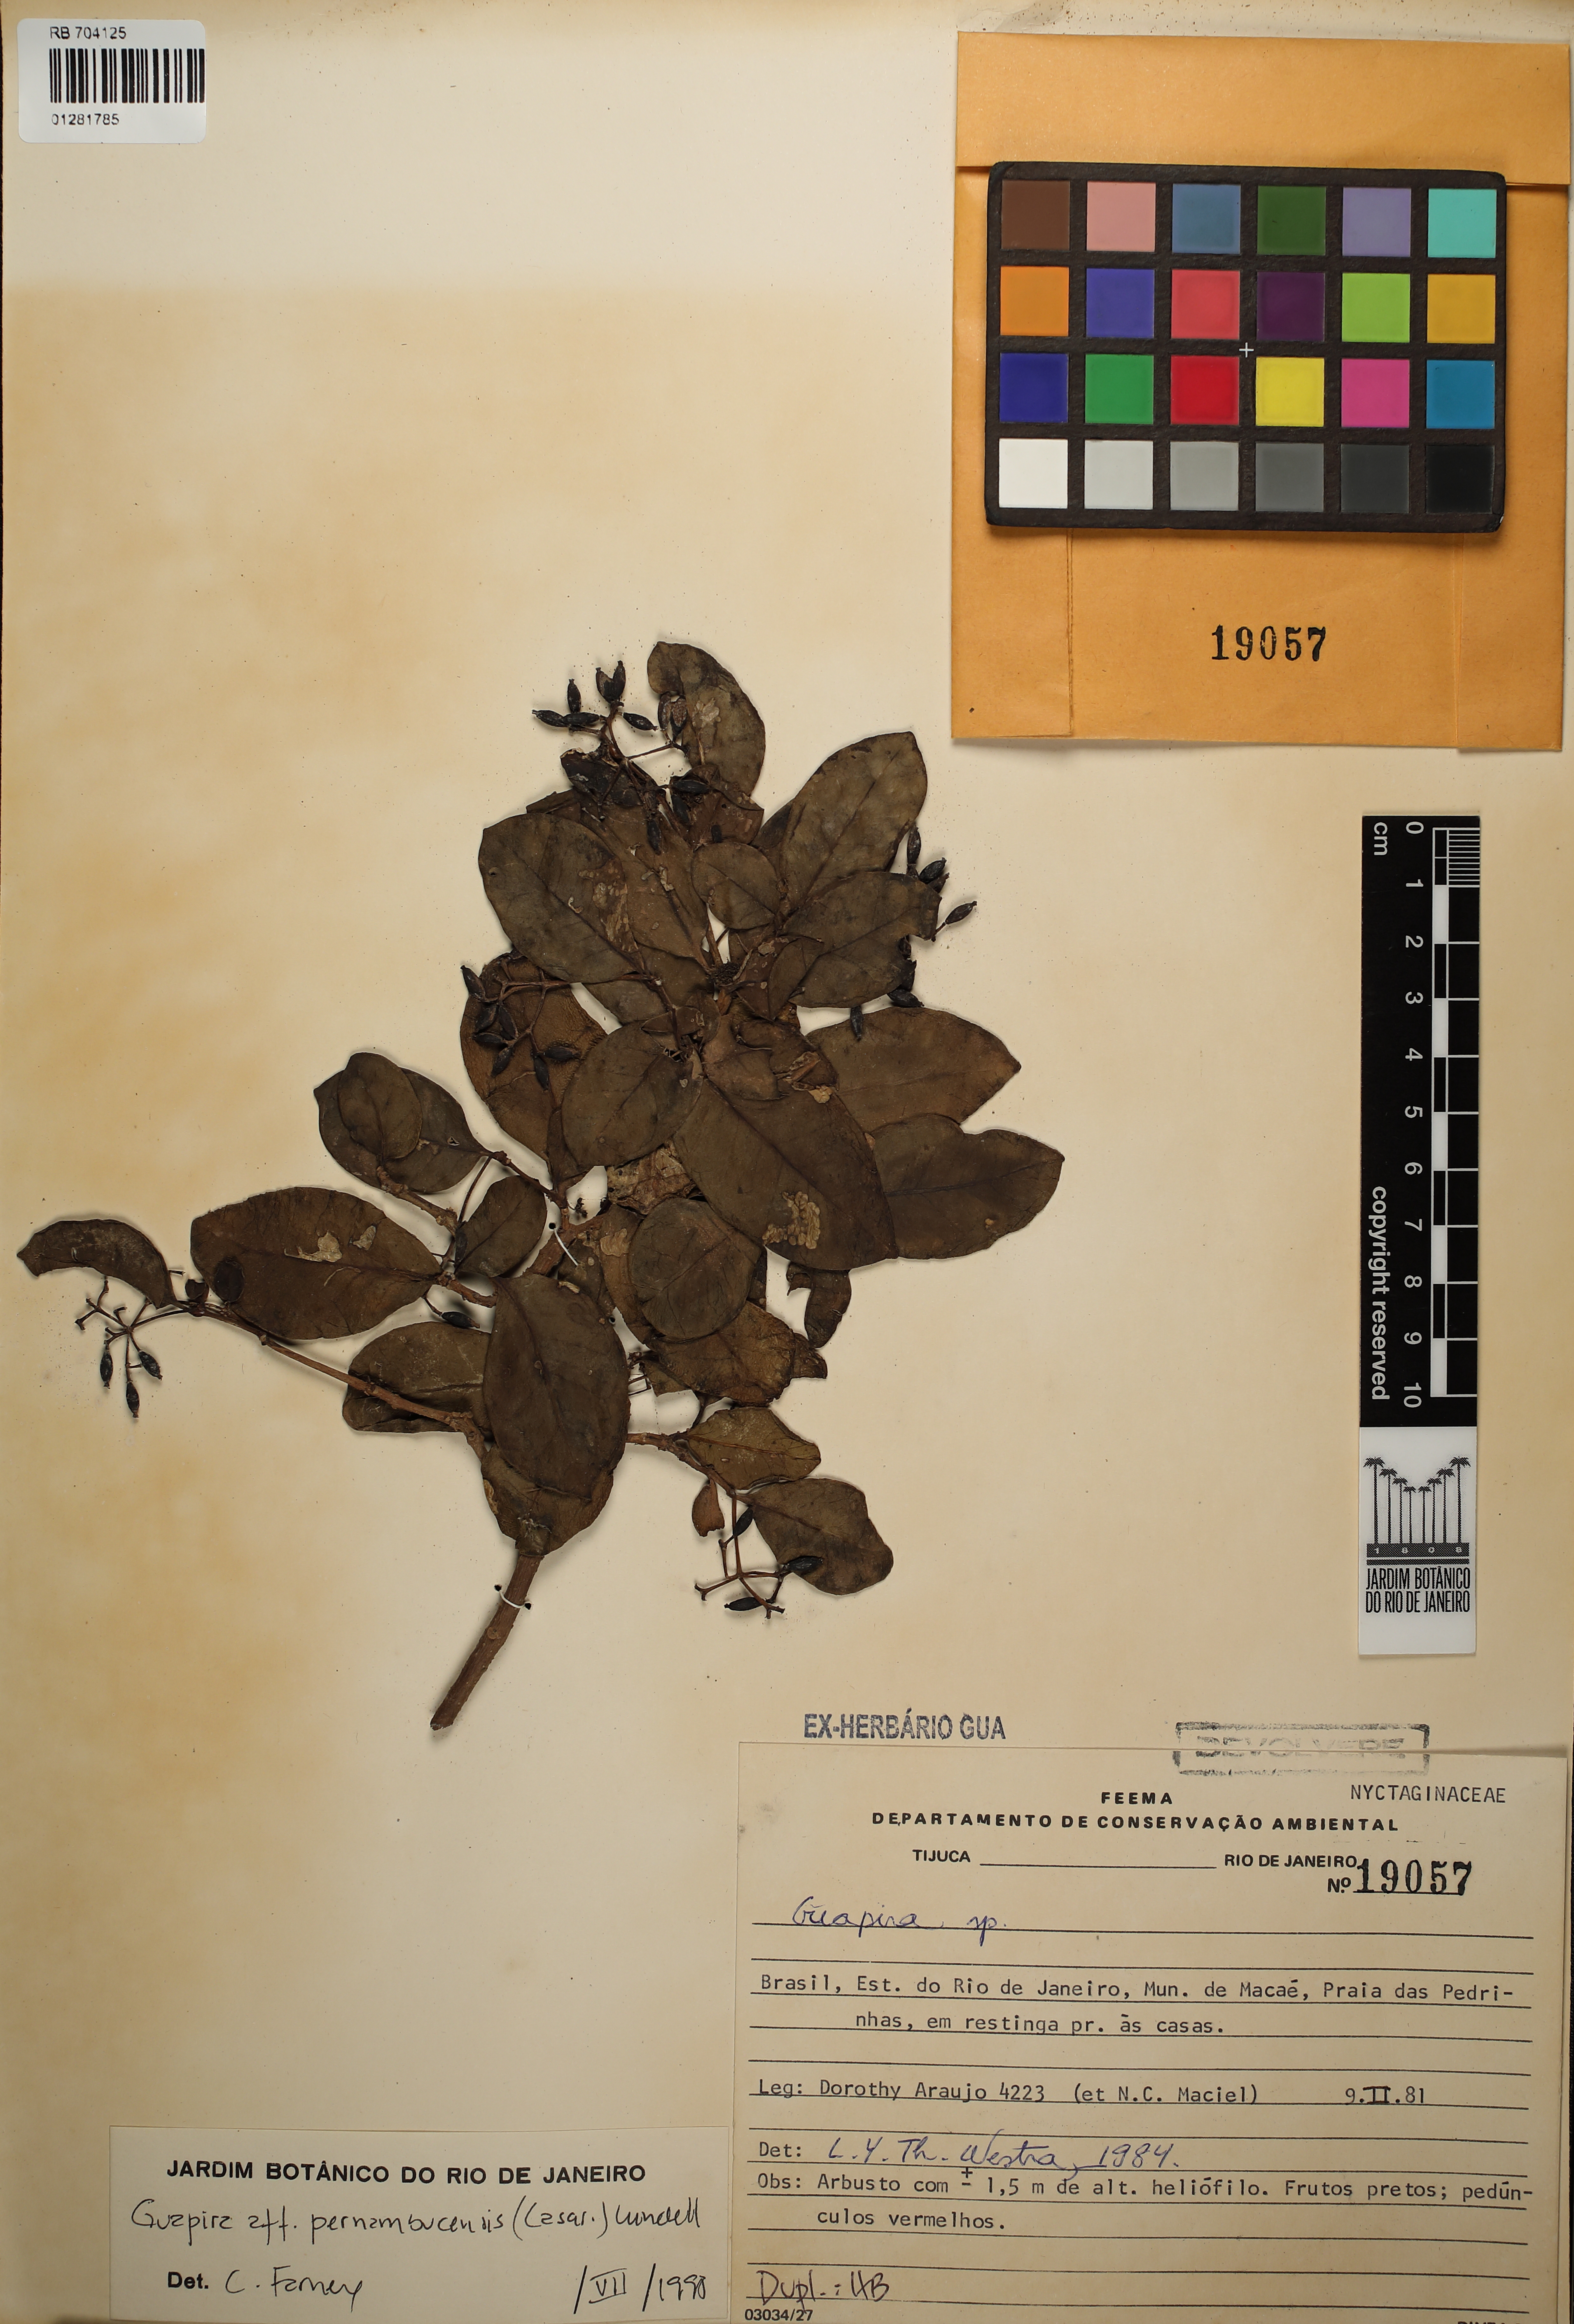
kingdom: Plantae
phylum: Tracheophyta
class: Magnoliopsida
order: Caryophyllales
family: Nyctaginaceae
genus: Guapira
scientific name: Guapira pernambucensis
